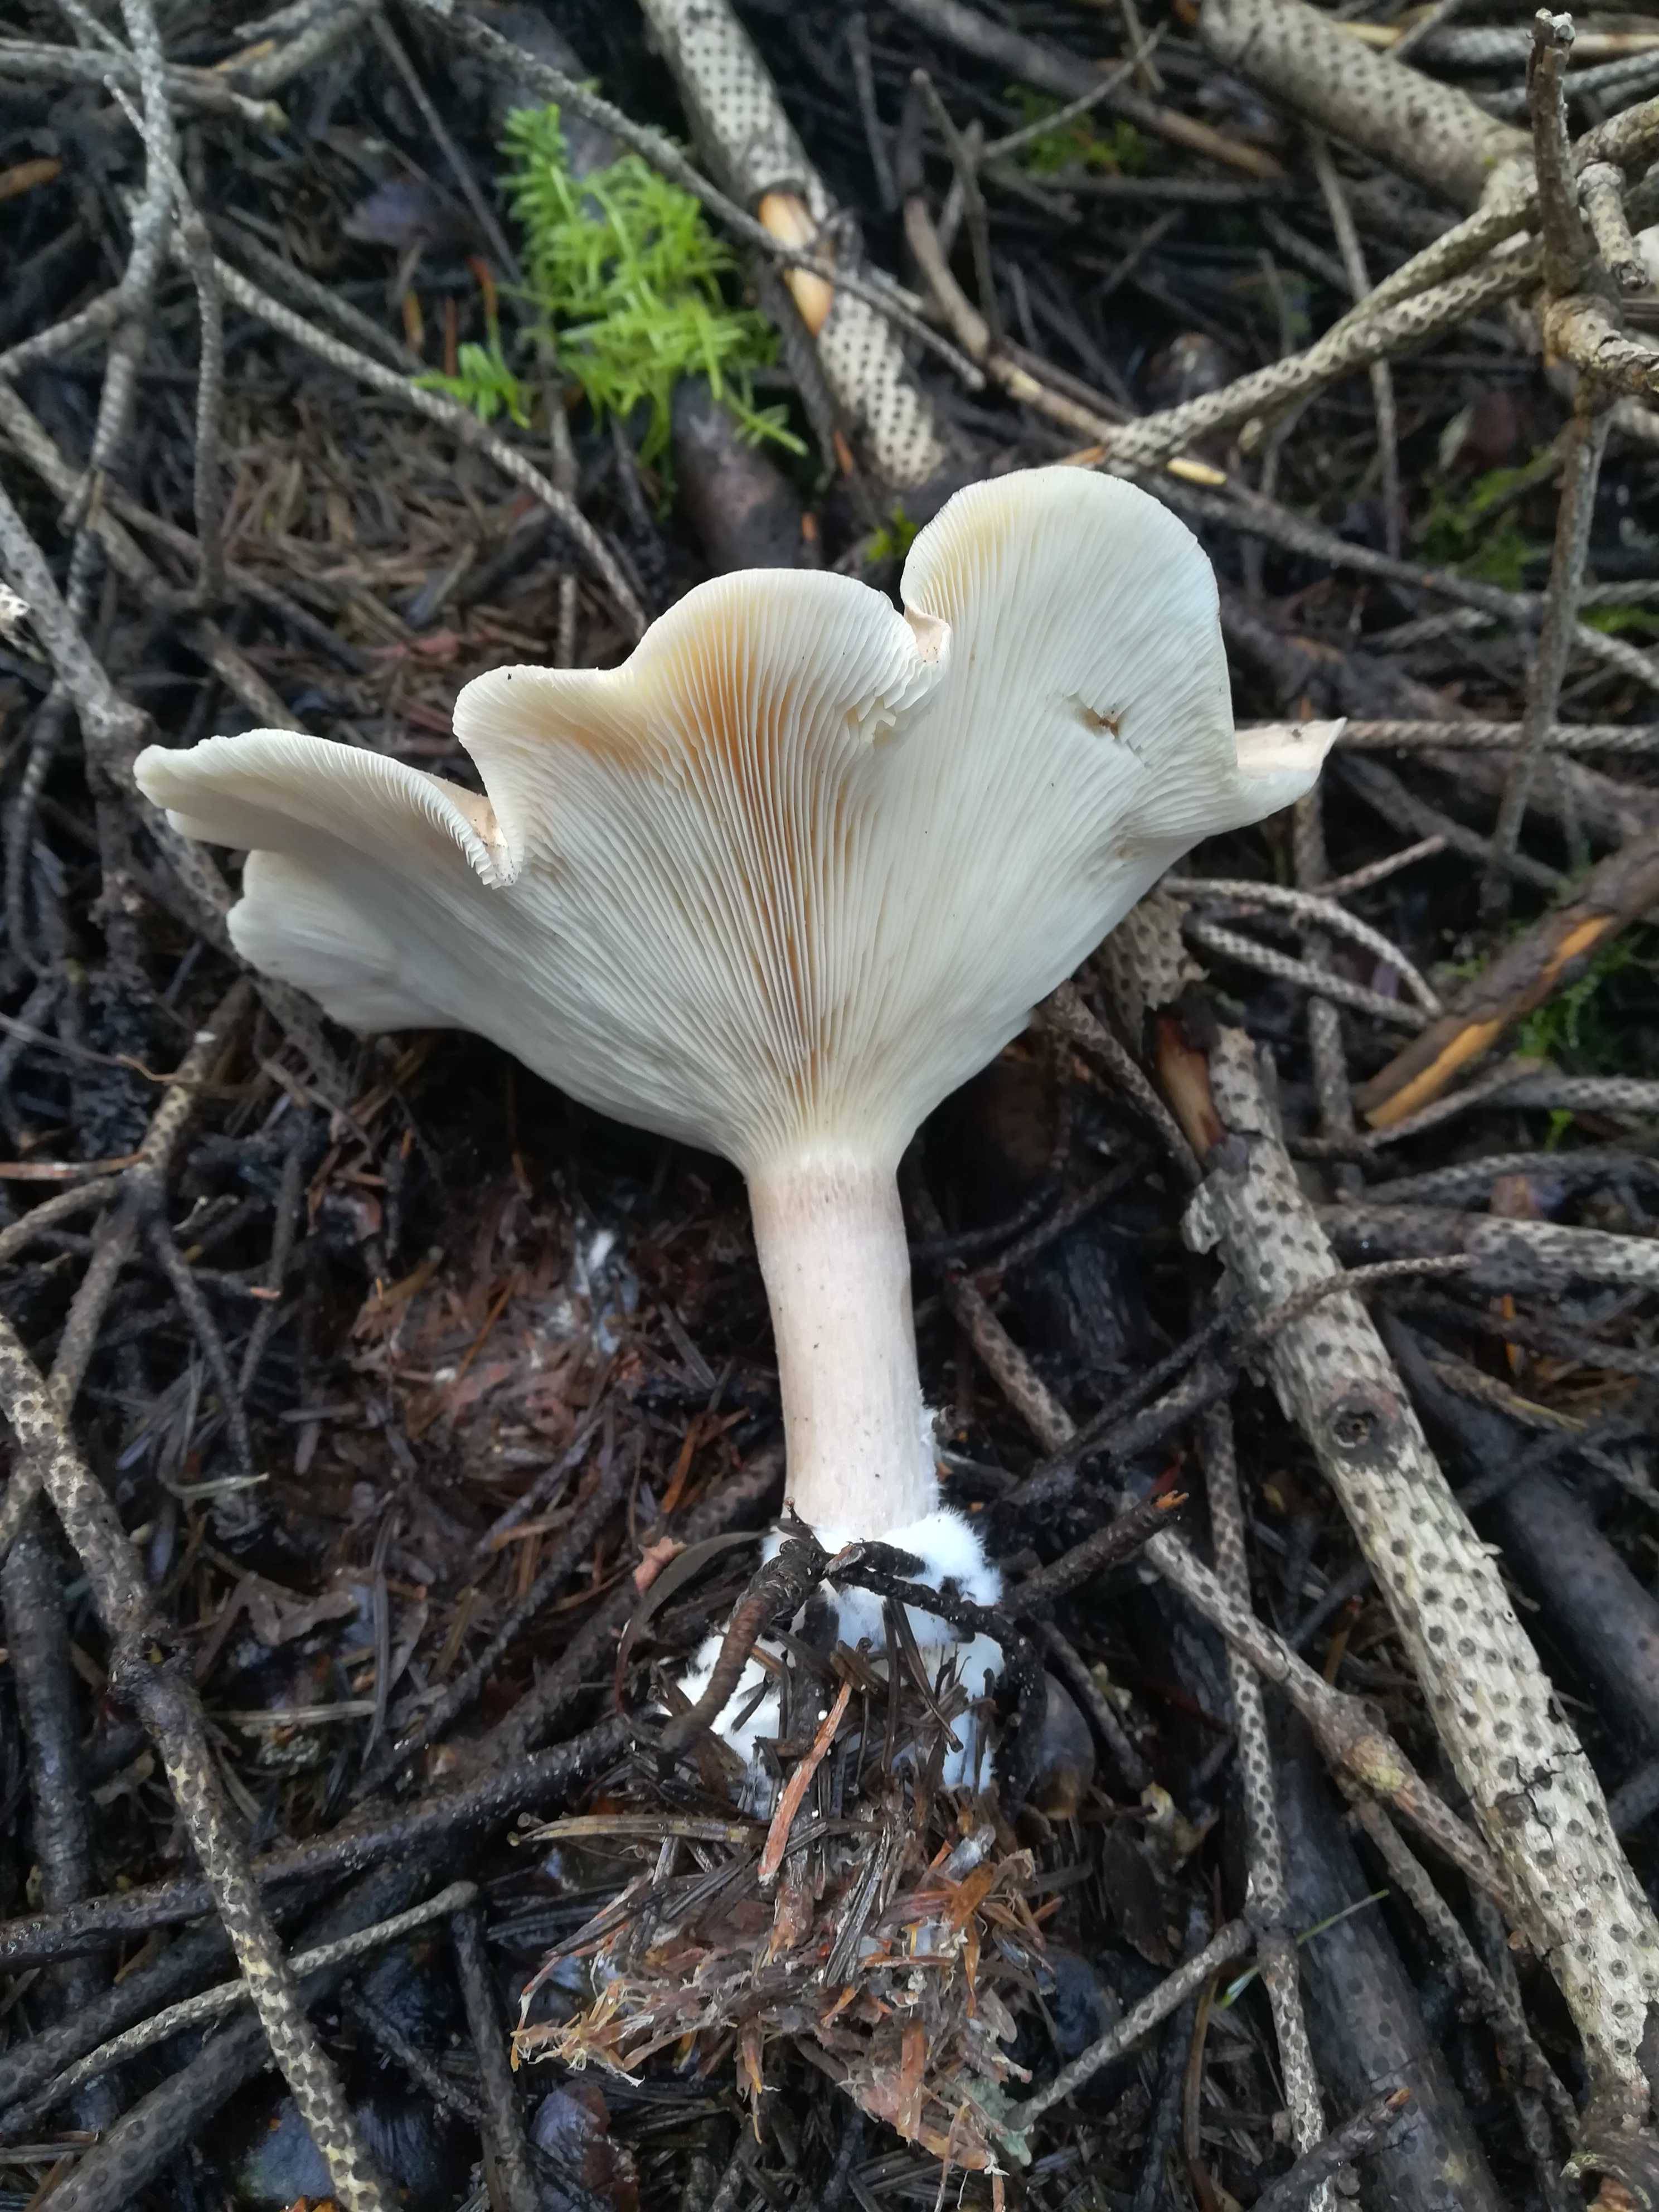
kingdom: Fungi
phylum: Basidiomycota
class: Agaricomycetes
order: Agaricales
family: Tricholomataceae
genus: Clitocybe
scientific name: Clitocybe
